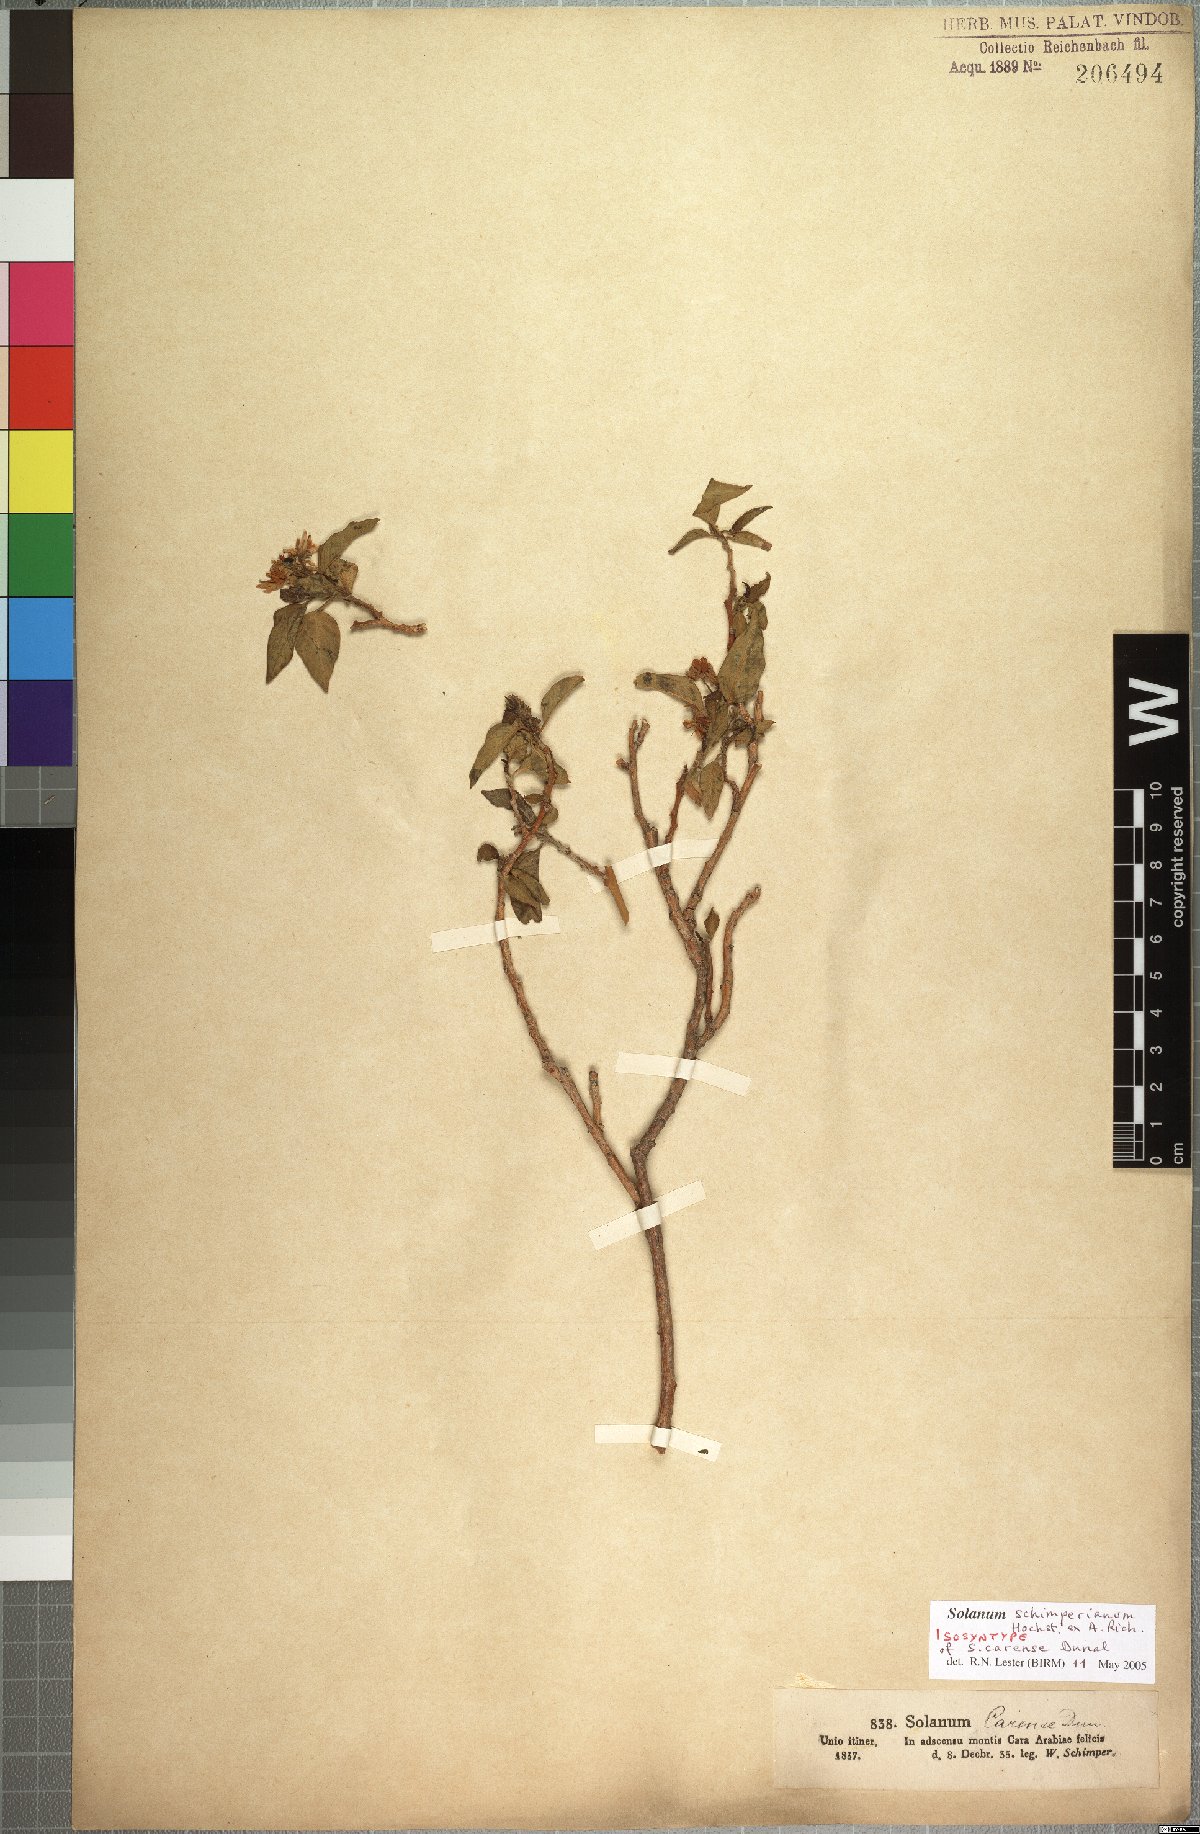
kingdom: Plantae
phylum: Tracheophyta
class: Magnoliopsida
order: Solanales
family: Solanaceae
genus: Solanum
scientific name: Solanum schimperianum
